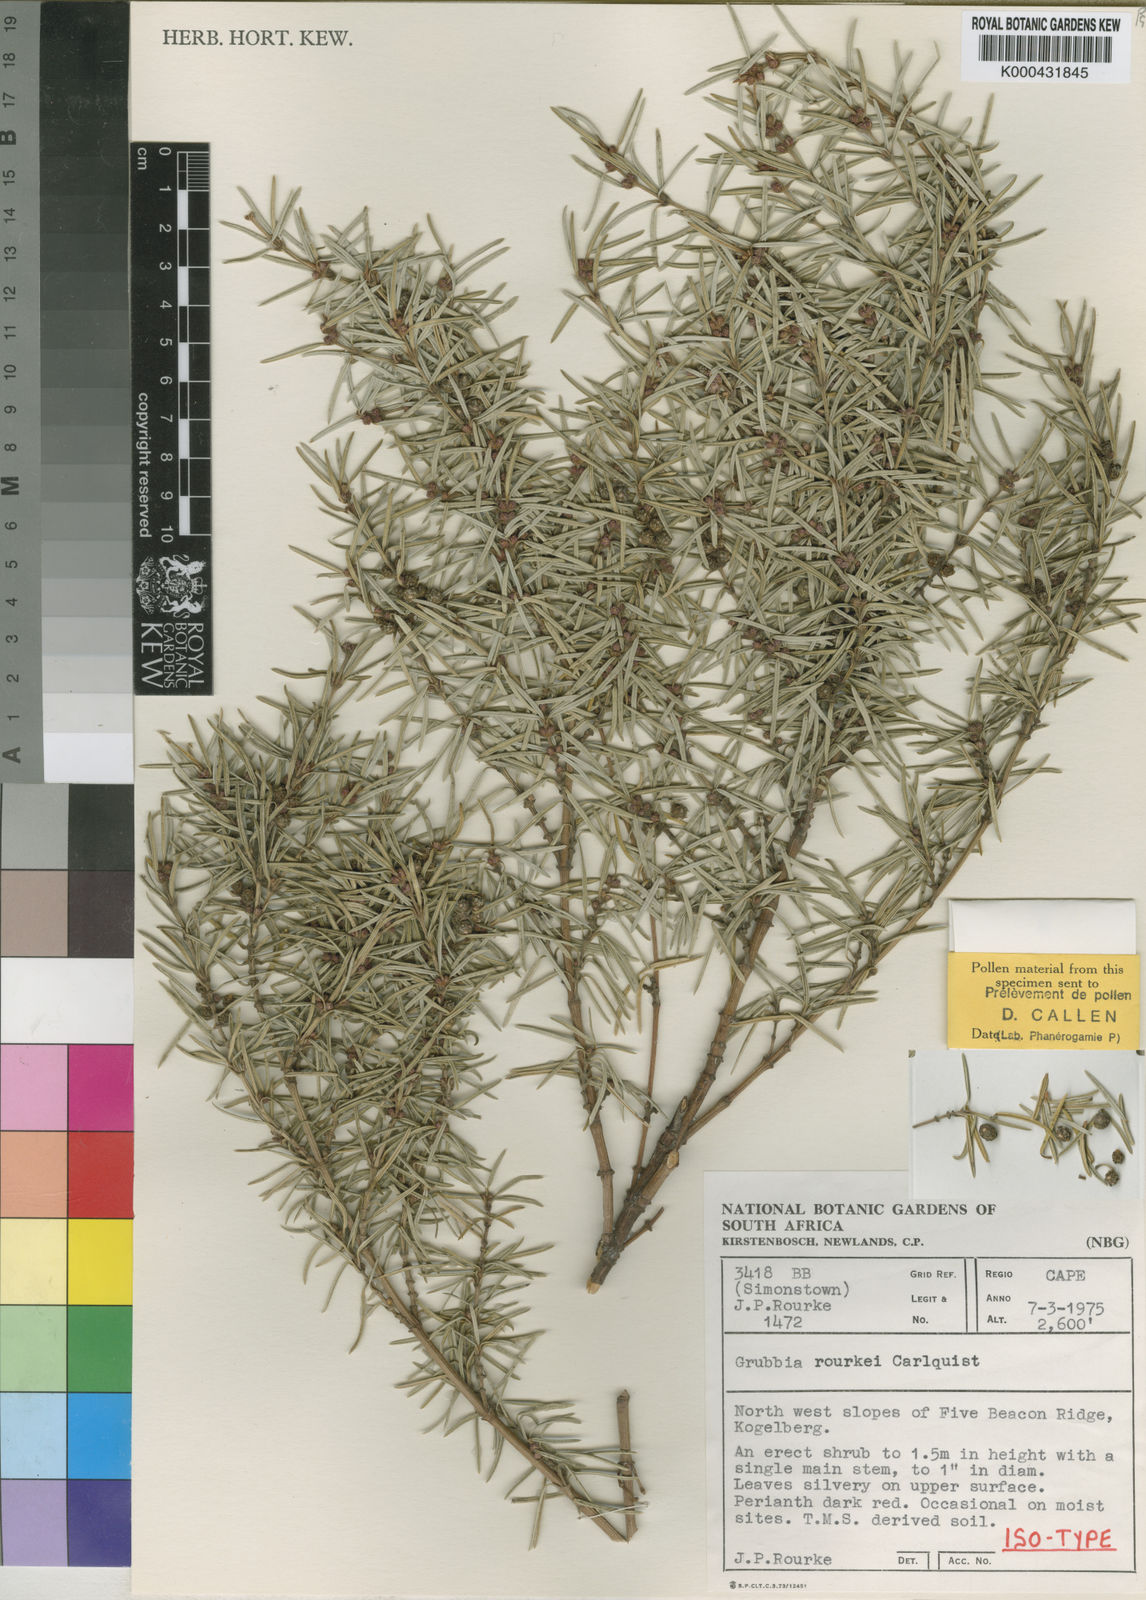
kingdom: Plantae
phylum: Tracheophyta
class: Magnoliopsida
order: Cornales
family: Grubbiaceae
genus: Grubbia
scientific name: Grubbia rourkei
